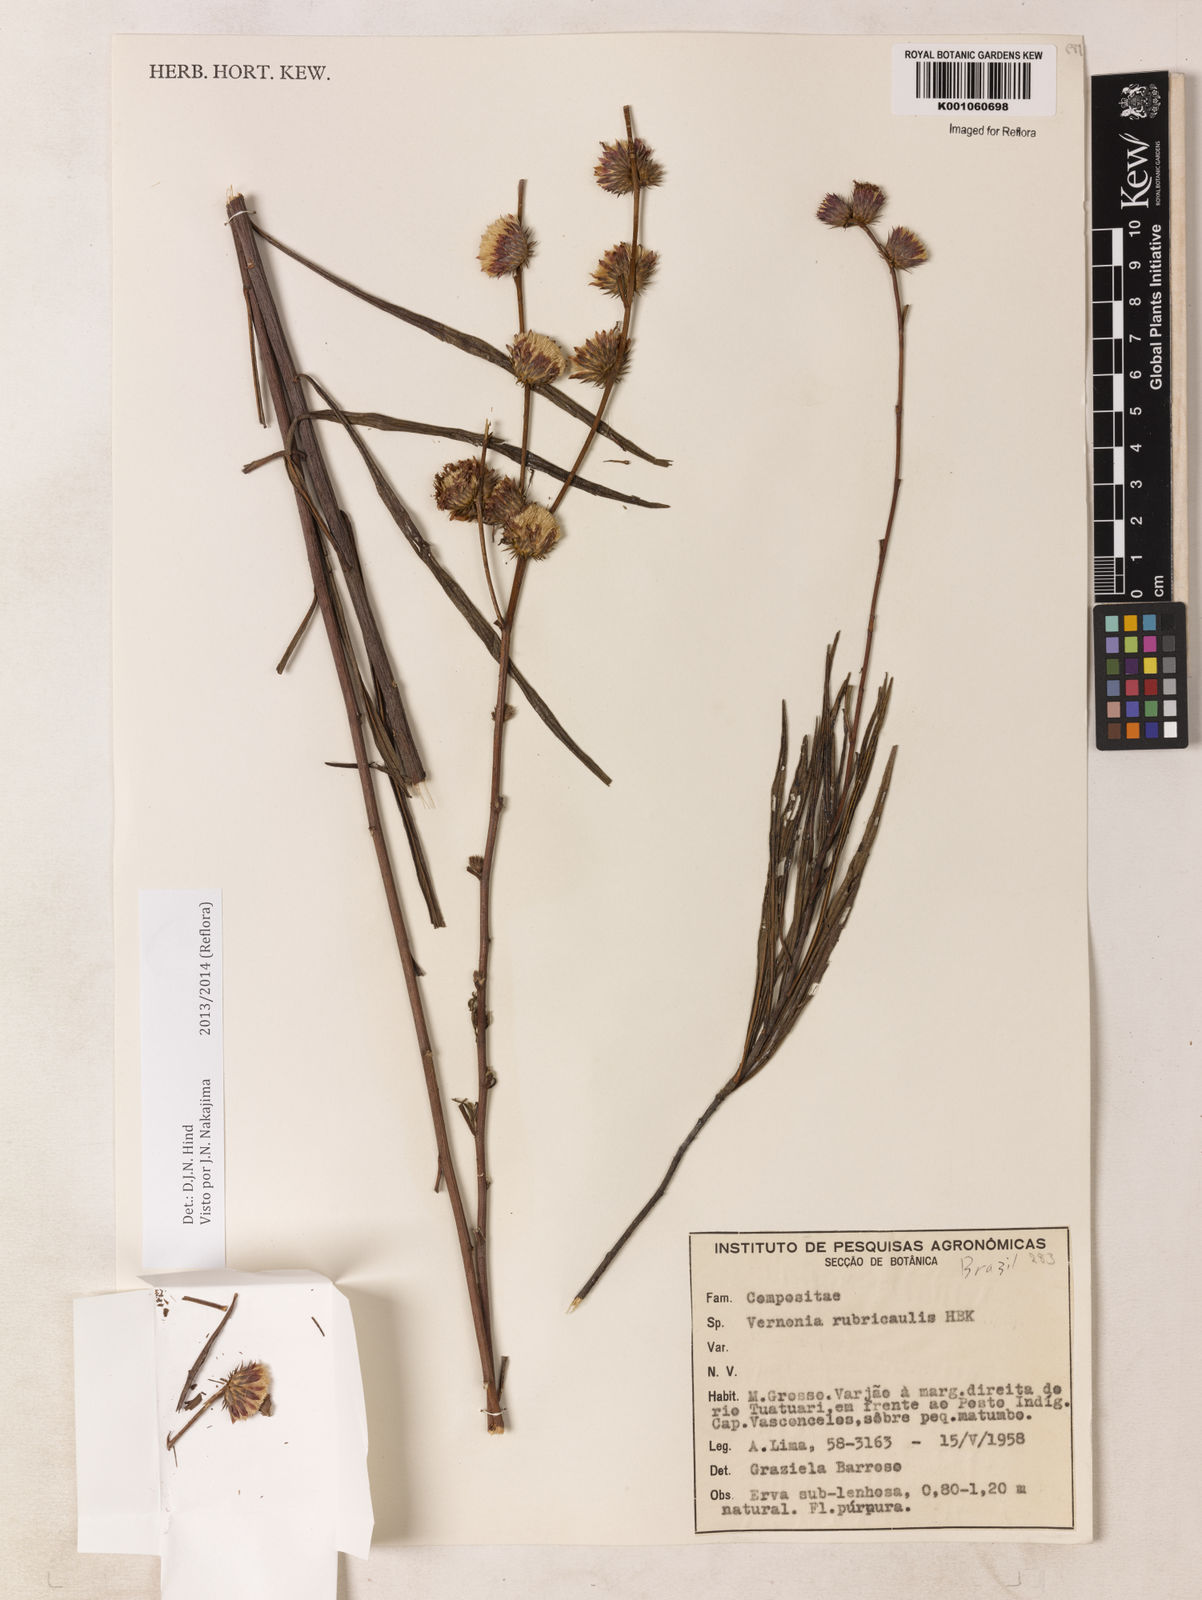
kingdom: Plantae
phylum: Tracheophyta
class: Magnoliopsida
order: Asterales
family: Asteraceae
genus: Lessingianthus
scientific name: Lessingianthus rubricaulis
